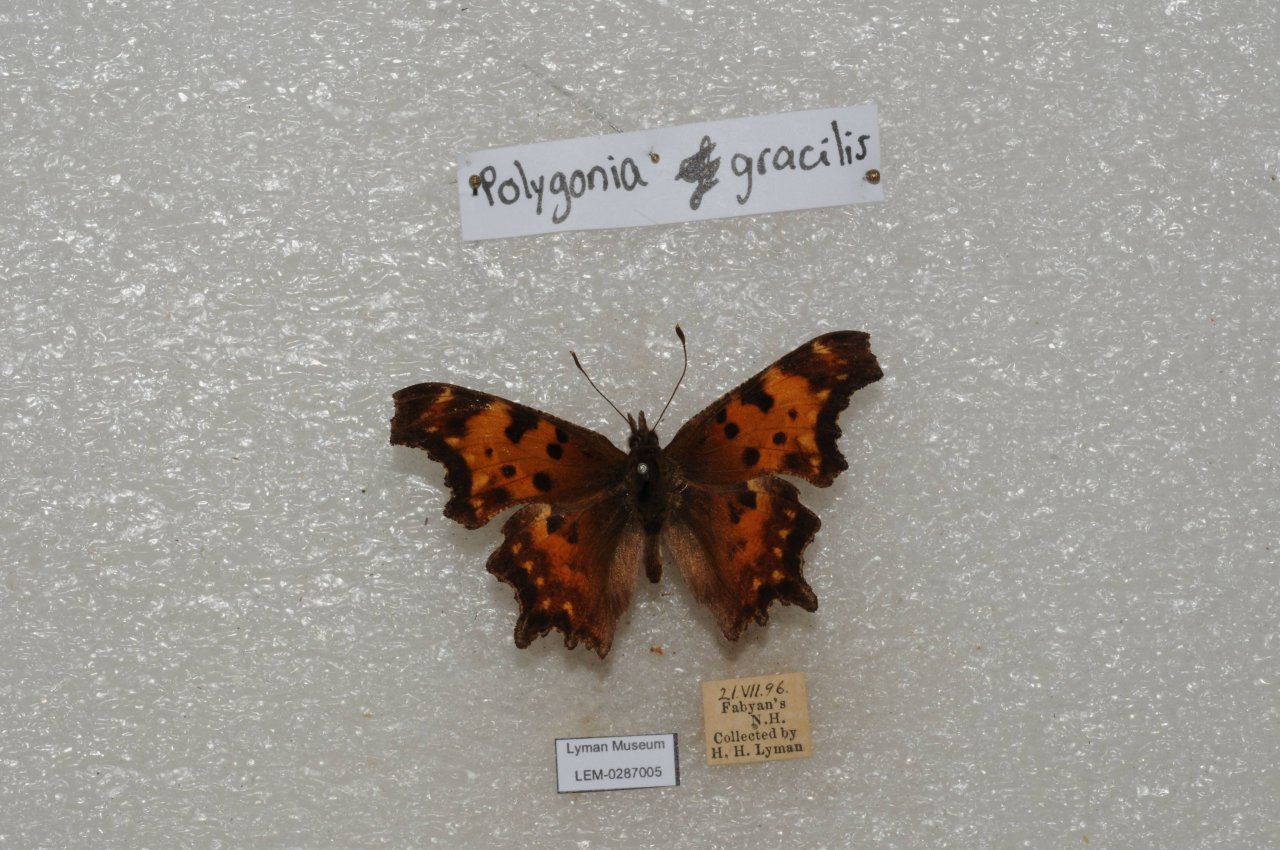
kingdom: Animalia
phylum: Arthropoda
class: Insecta
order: Lepidoptera
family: Nymphalidae
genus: Polygonia
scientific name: Polygonia gracilis
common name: Hoary Comma
